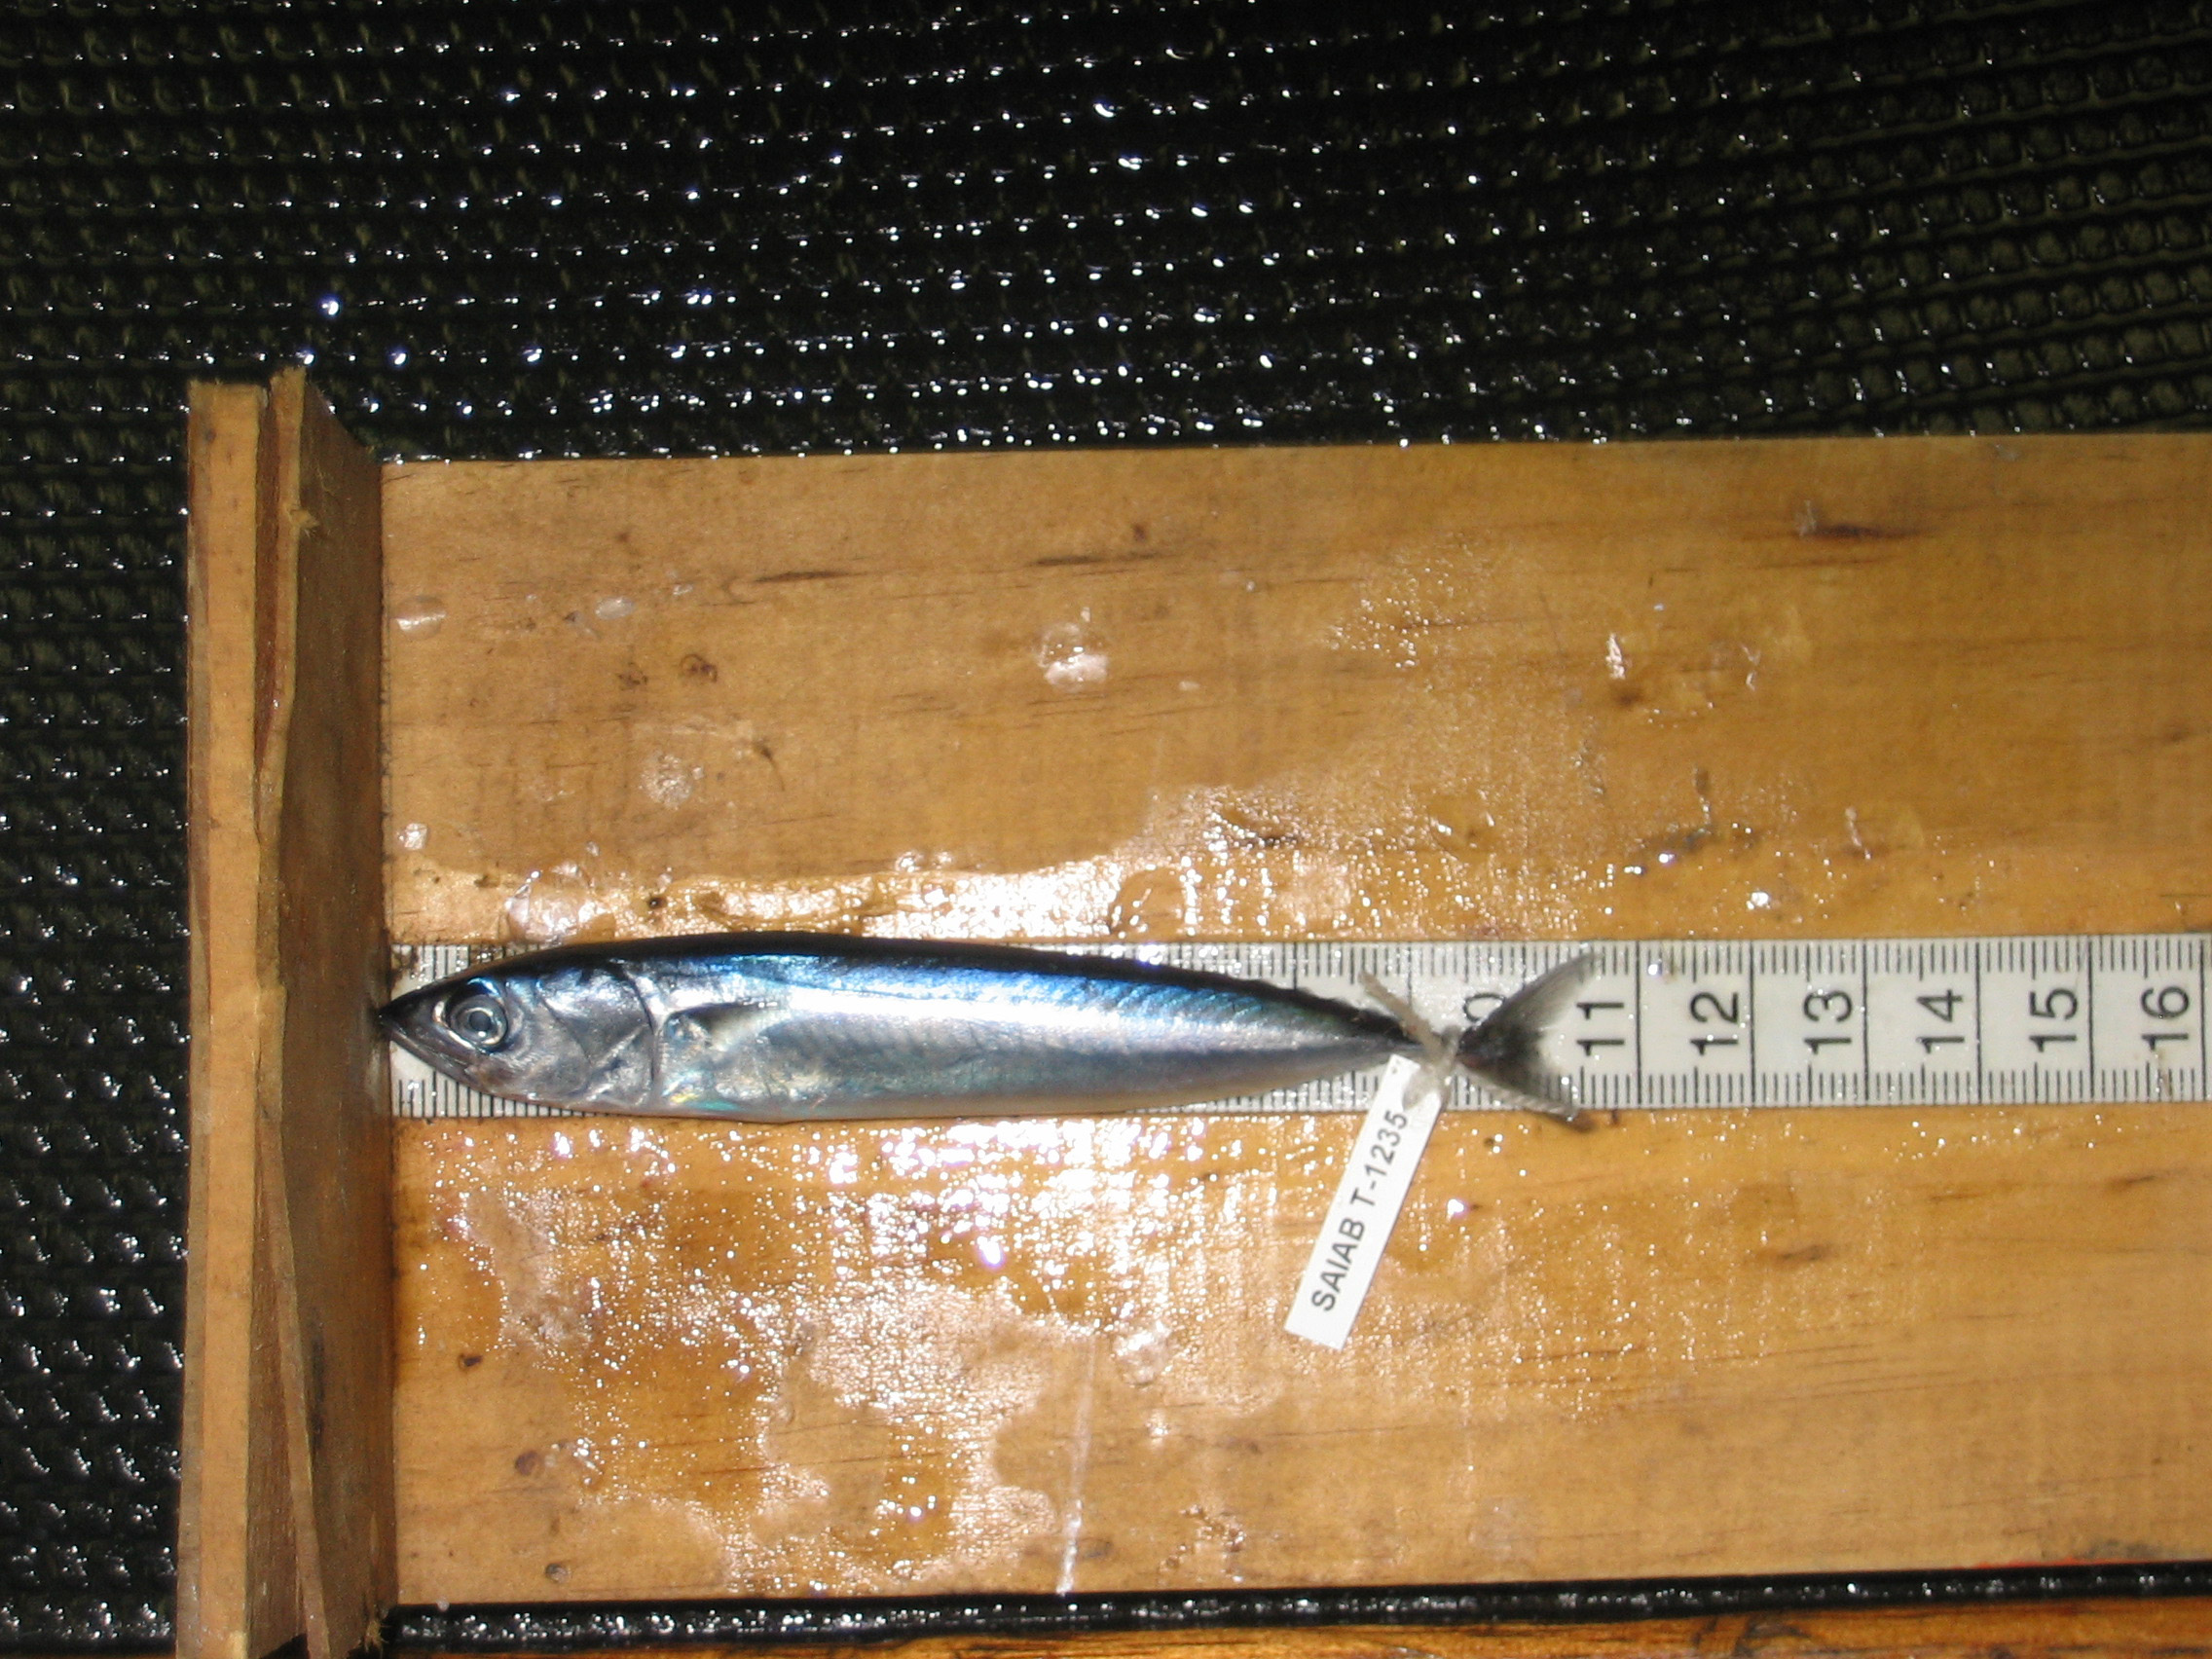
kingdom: Animalia
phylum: Chordata
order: Perciformes
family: Scombridae
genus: Auxis
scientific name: Auxis rochei
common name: Bullet tuna
